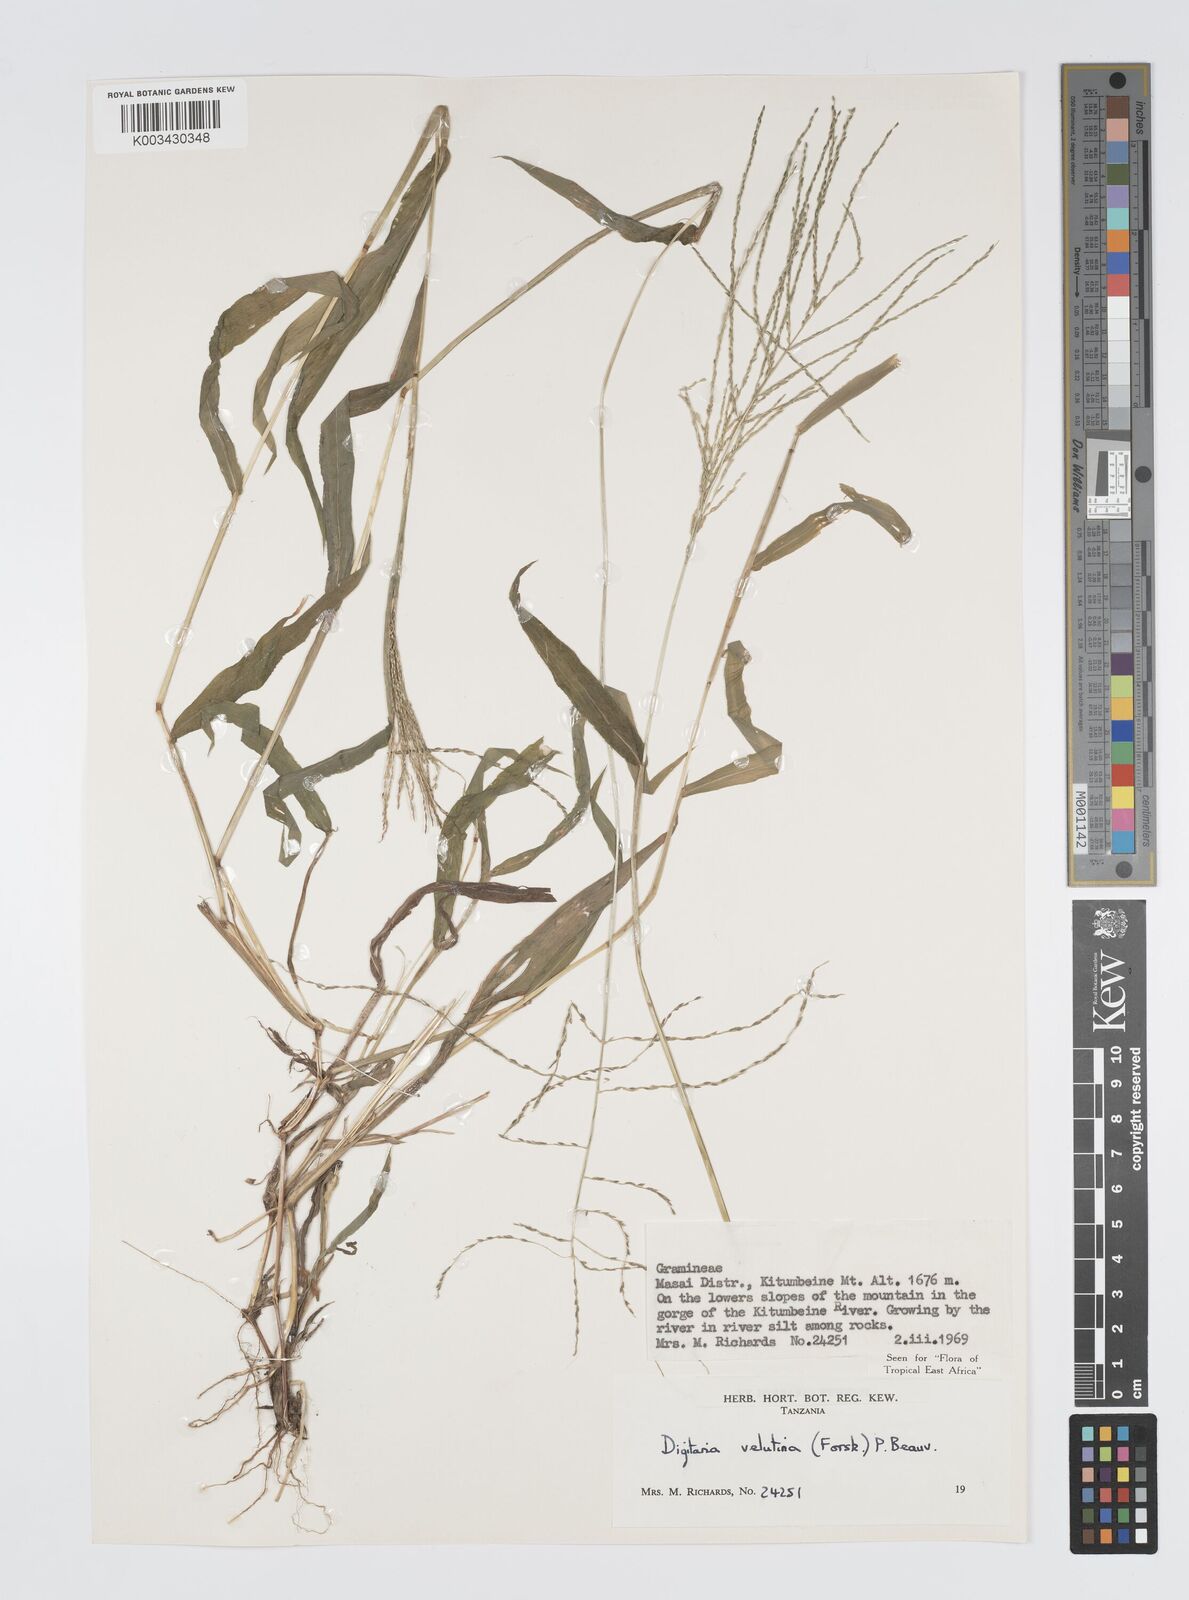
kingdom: Plantae
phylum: Tracheophyta
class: Liliopsida
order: Poales
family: Poaceae
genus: Digitaria
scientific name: Digitaria velutina
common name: Long-plume finger grass
